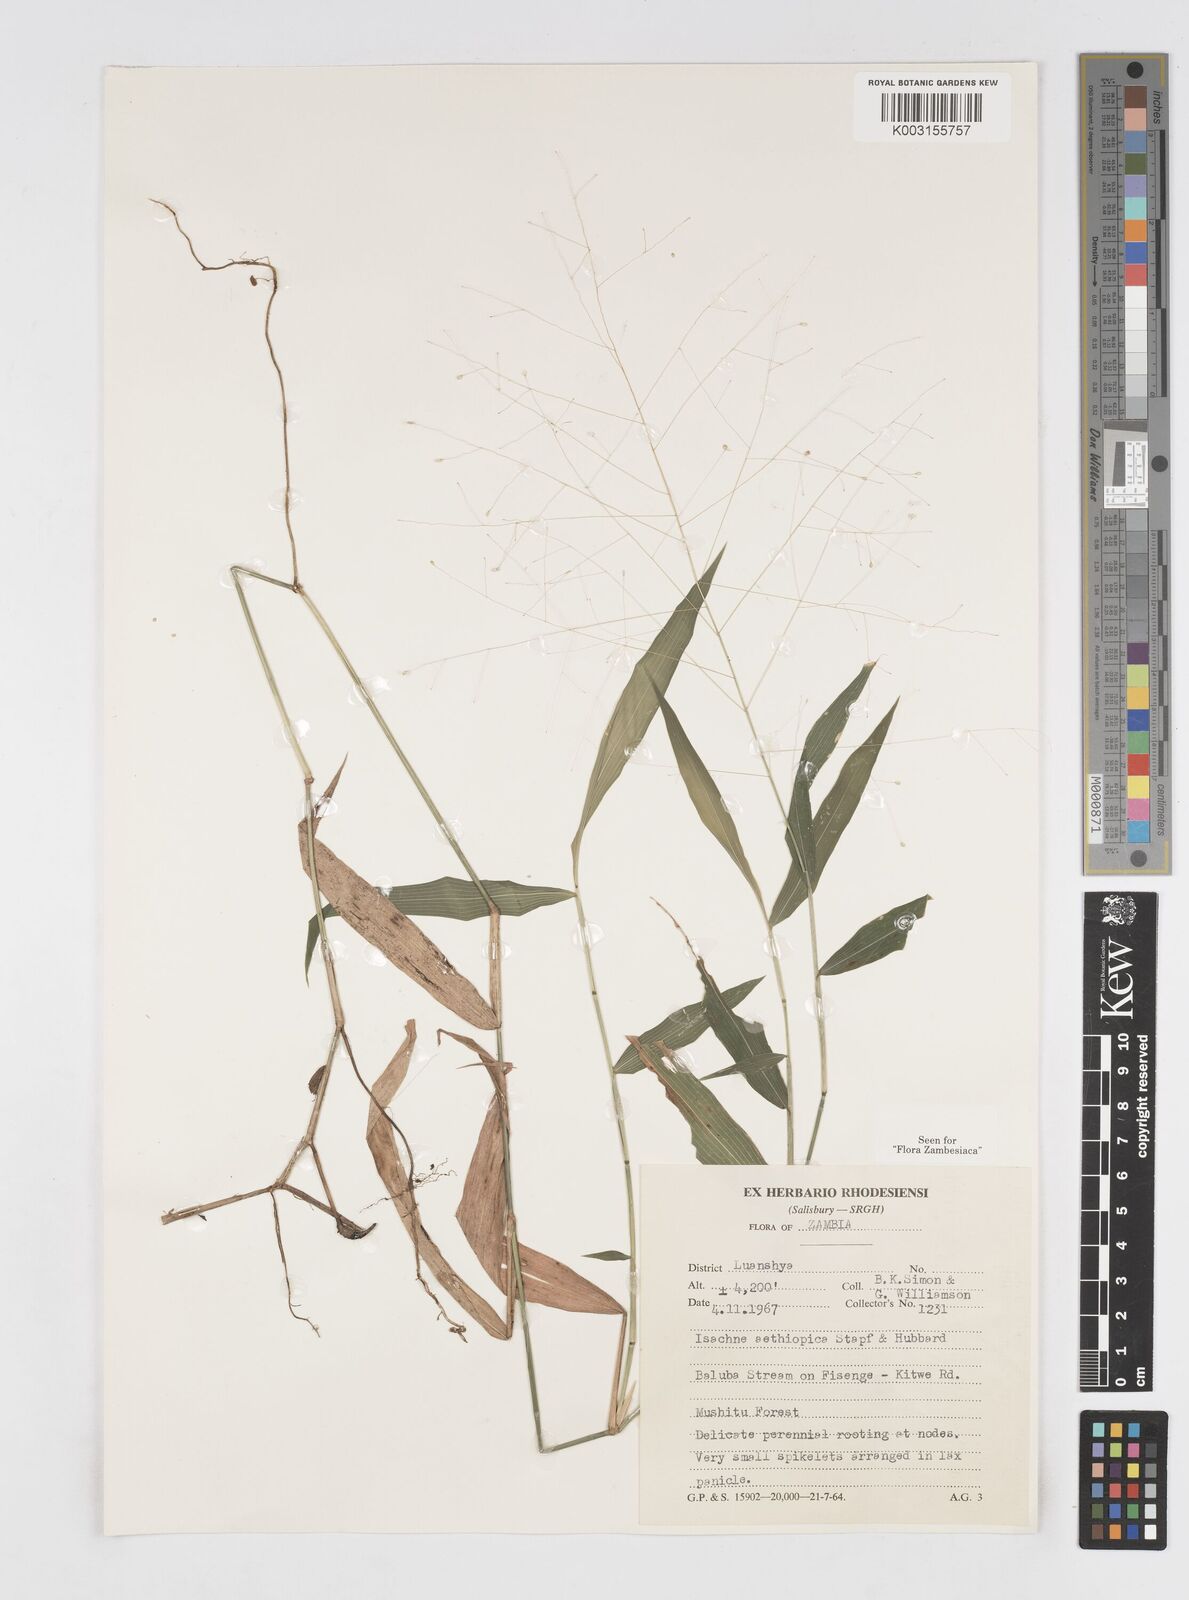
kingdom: Plantae
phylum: Tracheophyta
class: Liliopsida
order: Poales
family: Poaceae
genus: Isachne
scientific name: Isachne mauritiana
